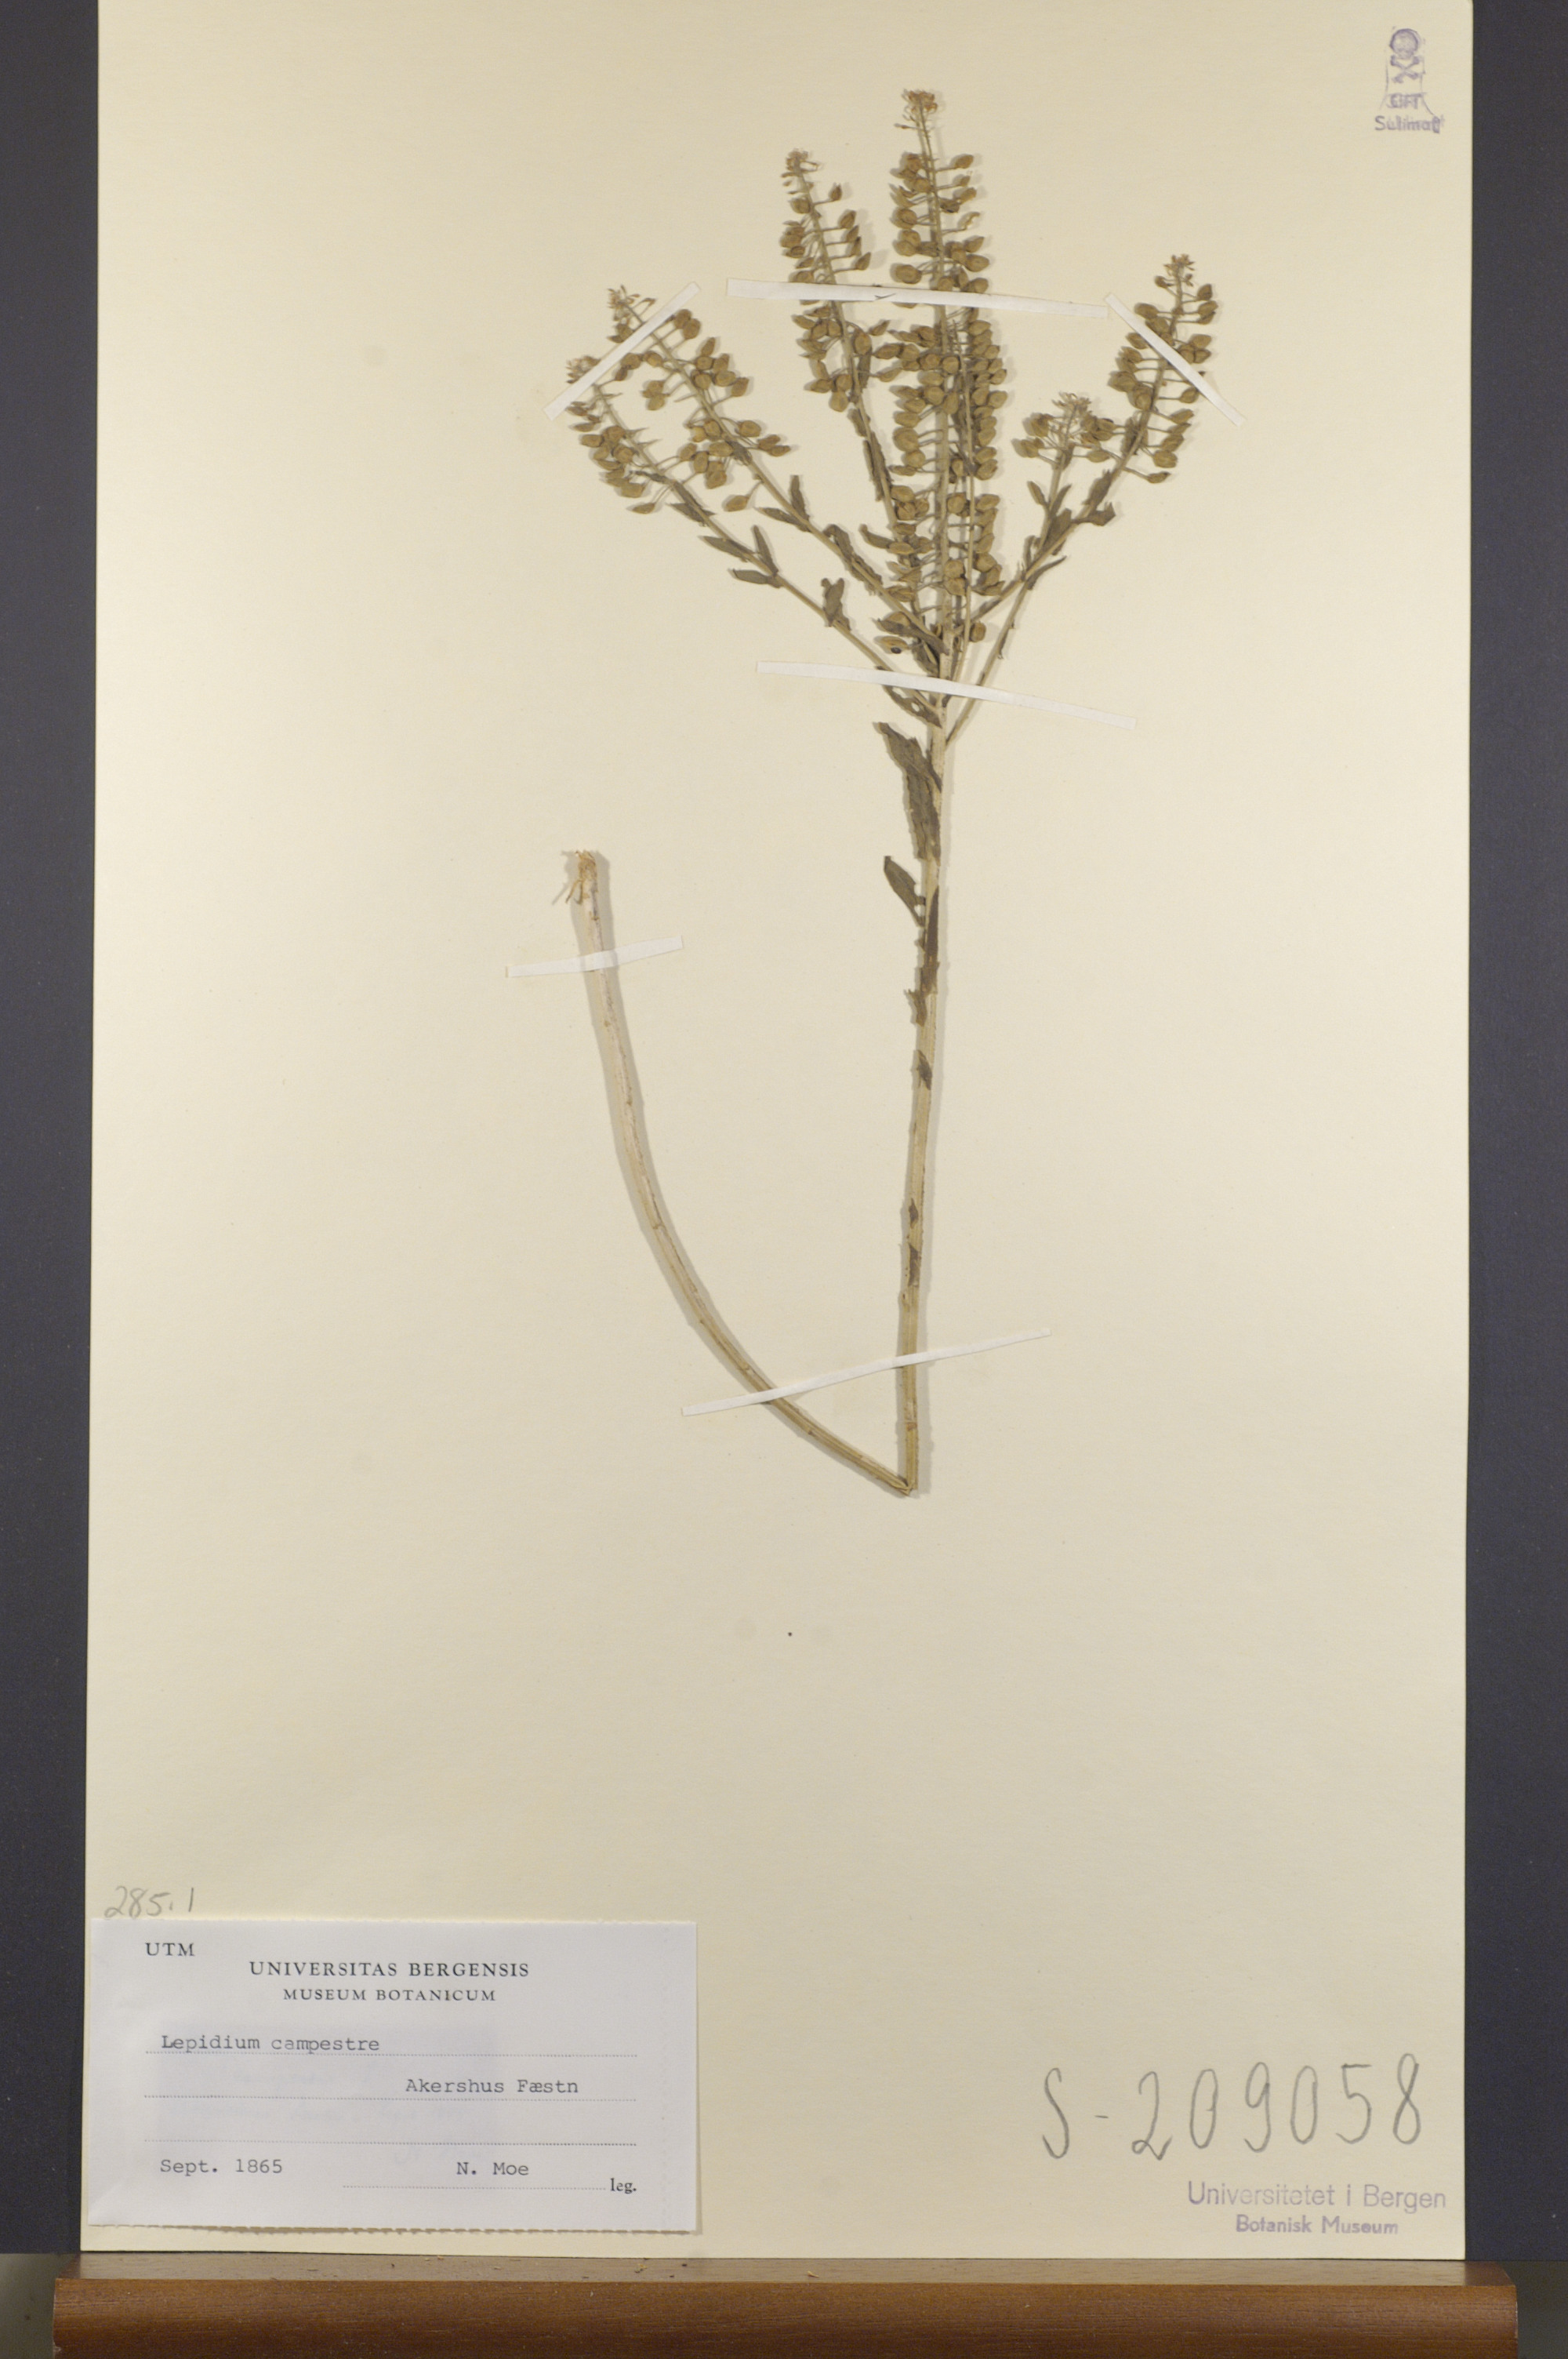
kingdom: Plantae
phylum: Tracheophyta
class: Magnoliopsida
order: Brassicales
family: Brassicaceae
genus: Lepidium
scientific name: Lepidium campestre
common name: Field pepperwort
